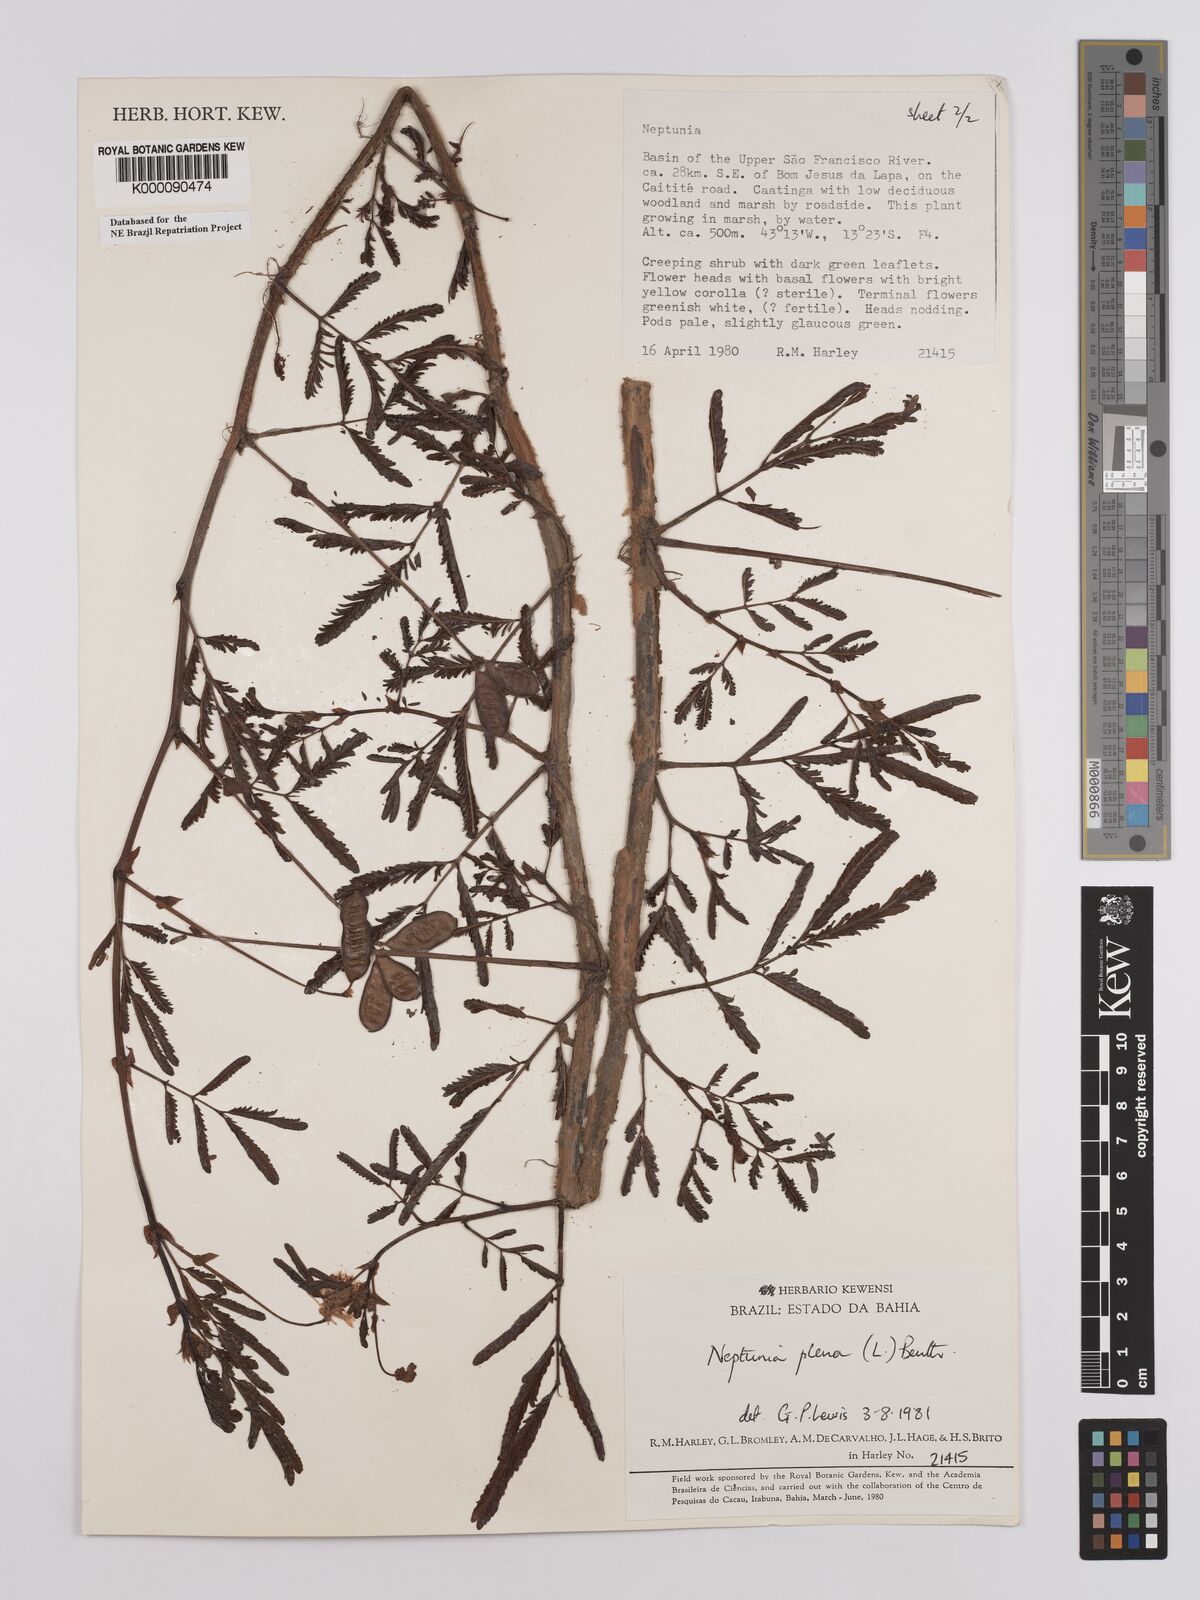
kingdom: Plantae
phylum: Tracheophyta
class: Magnoliopsida
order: Fabales
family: Fabaceae
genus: Neptunia
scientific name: Neptunia plena
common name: Dead and awake
